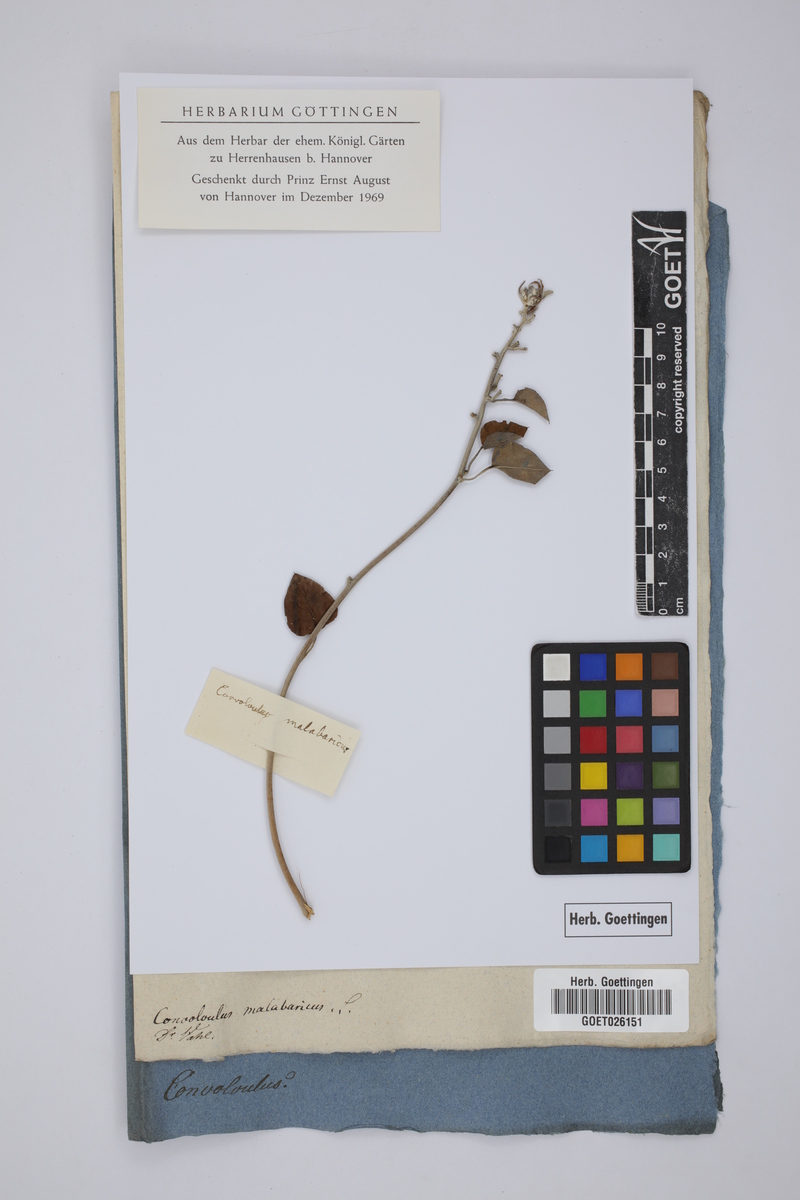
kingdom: Plantae
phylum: Tracheophyta
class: Magnoliopsida
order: Solanales
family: Convolvulaceae
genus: Hewittia
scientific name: Hewittia malabarica
